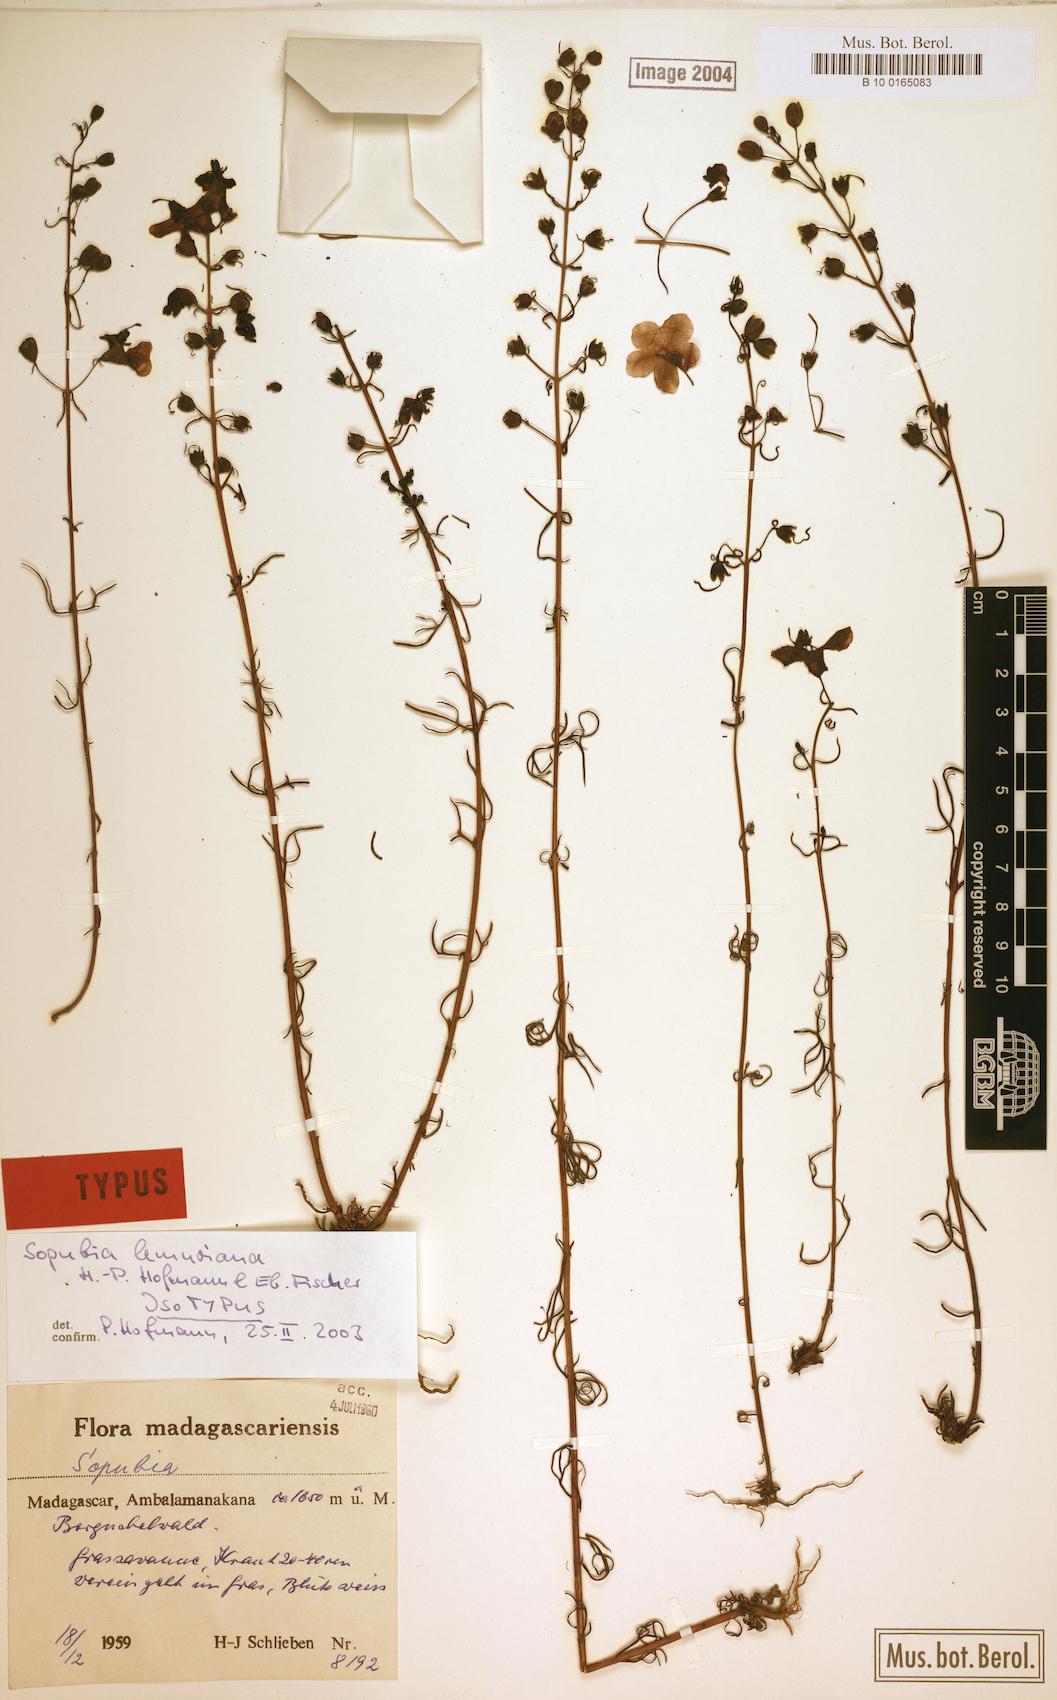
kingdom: Plantae
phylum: Tracheophyta
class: Magnoliopsida
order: Lamiales
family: Orobanchaceae
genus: Sopubia
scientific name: Sopubia lemuriana
